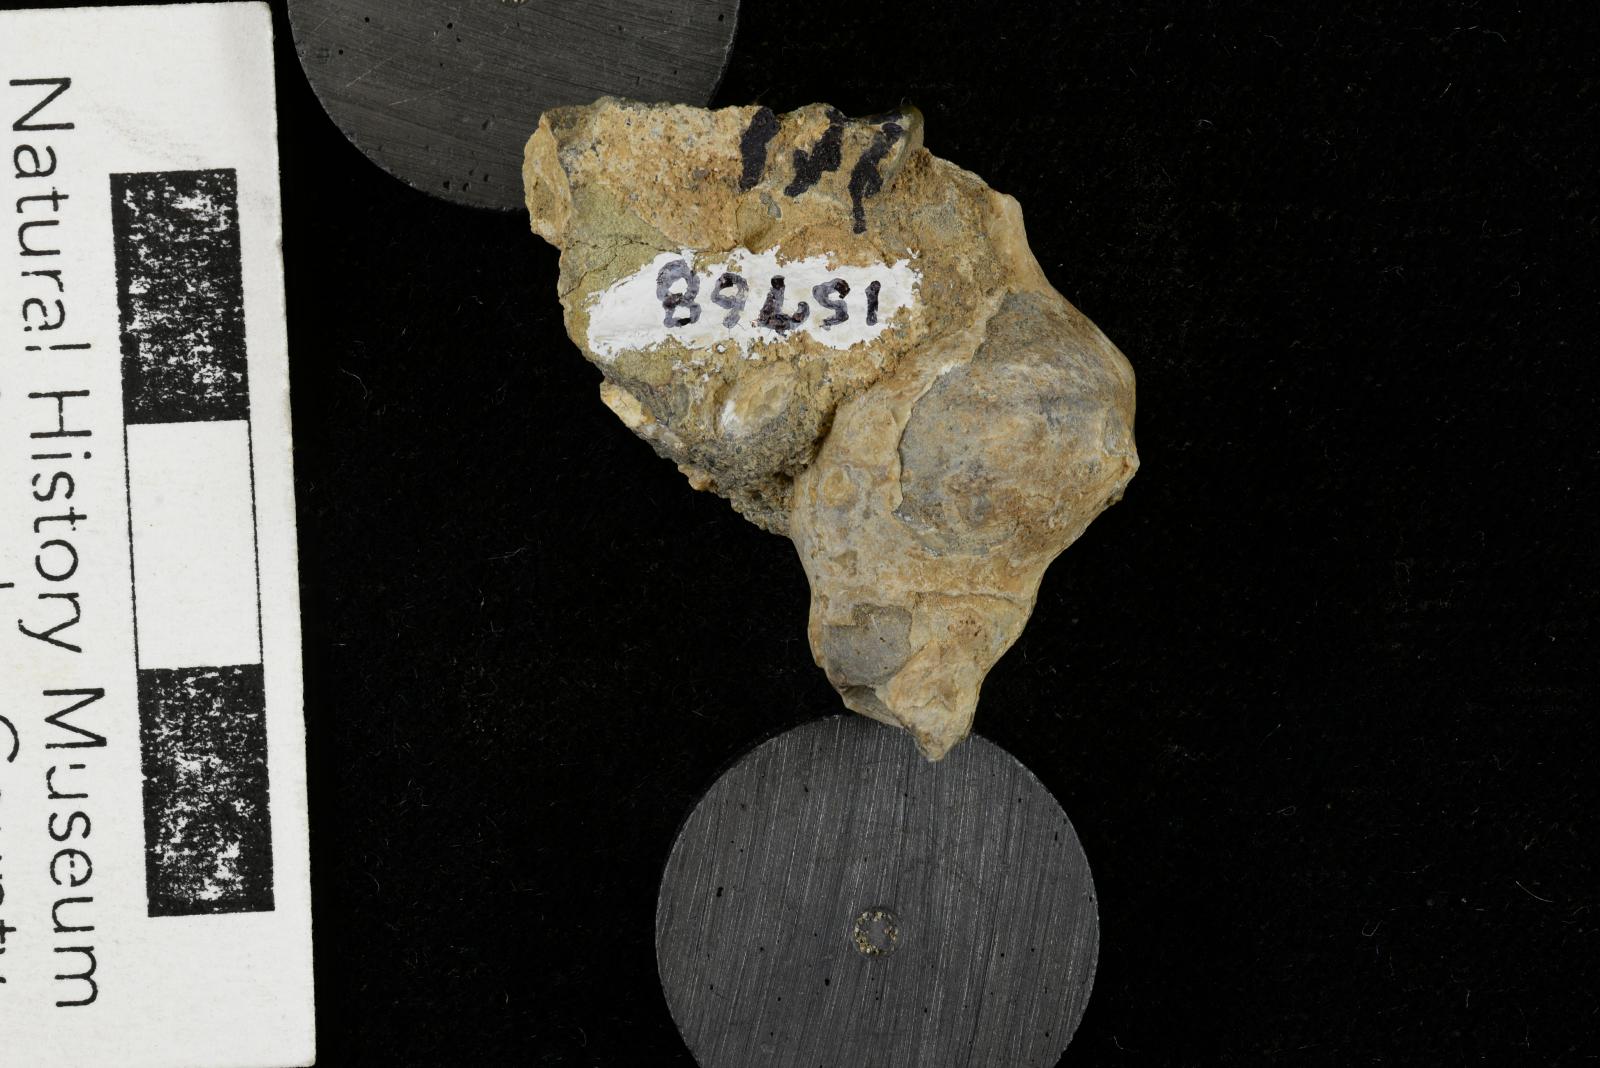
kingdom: Animalia
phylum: Mollusca
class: Gastropoda
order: Littorinimorpha
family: Aporrhaidae
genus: Tessarolax
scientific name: Tessarolax bullardi
